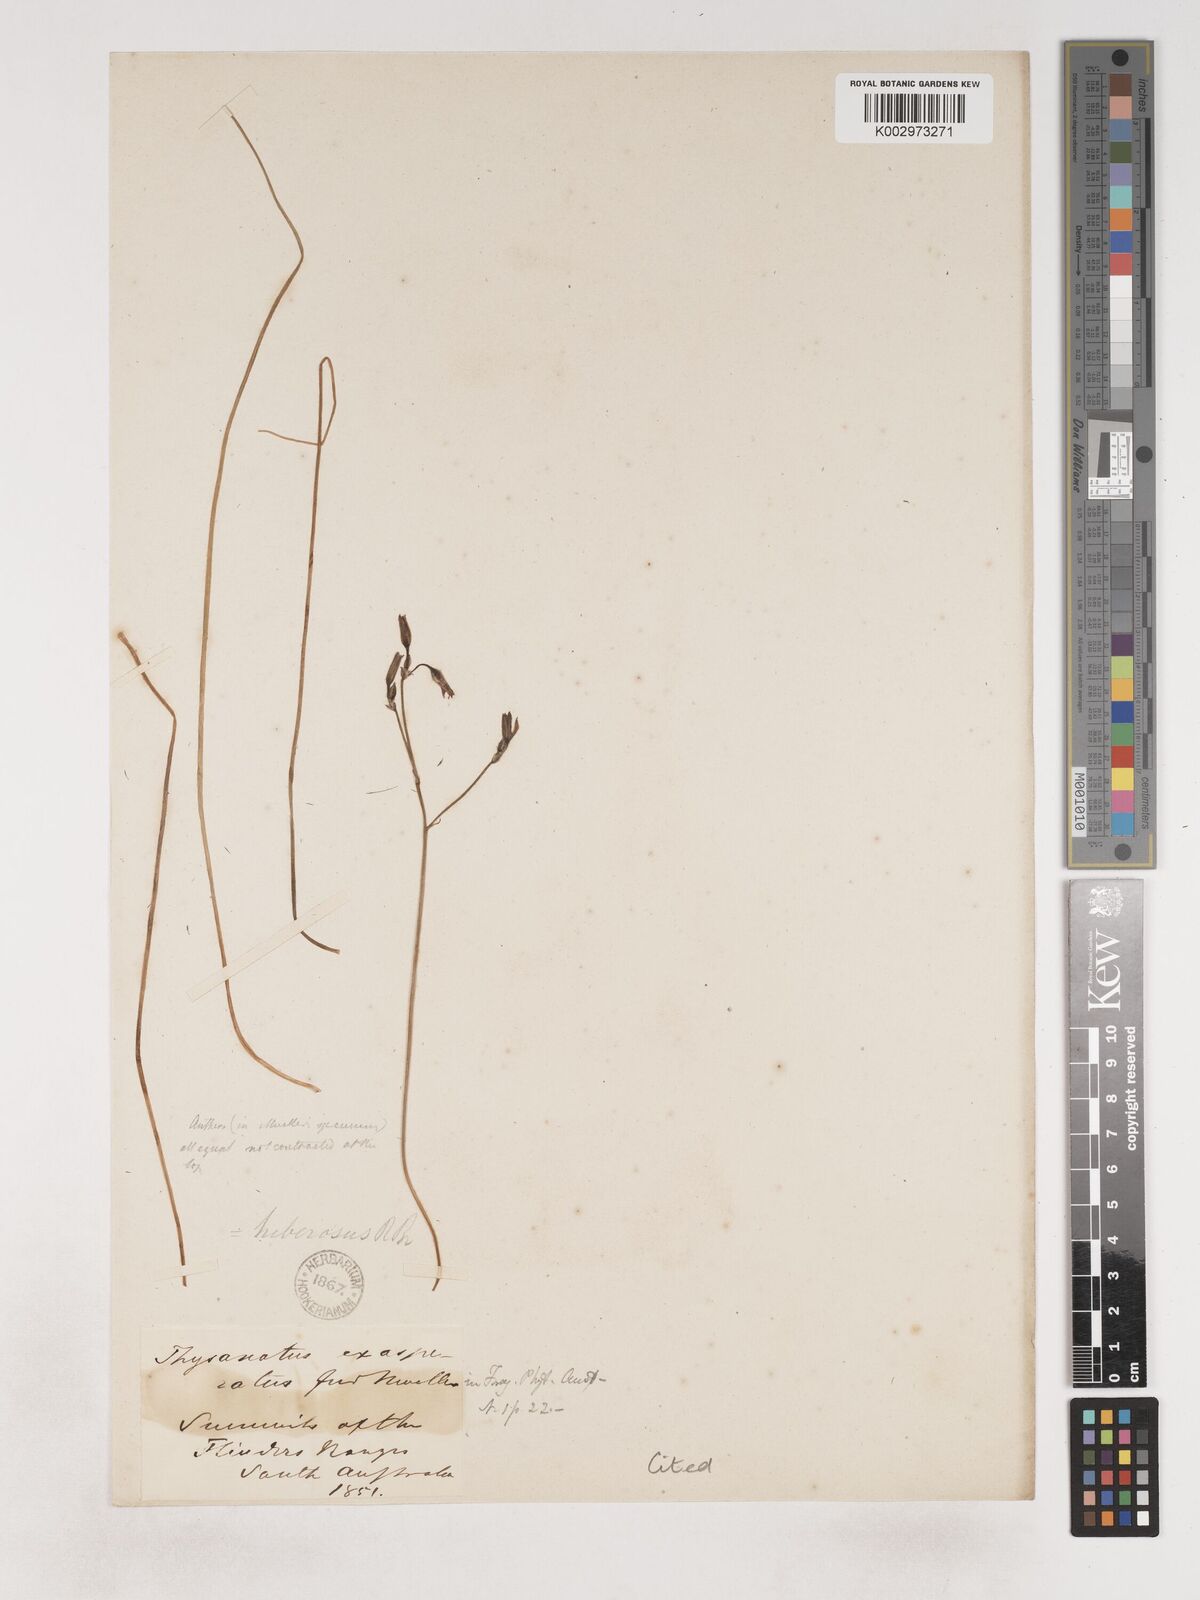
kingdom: Plantae
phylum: Tracheophyta
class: Liliopsida
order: Asparagales
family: Asparagaceae
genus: Thysanotus
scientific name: Thysanotus tenellus
